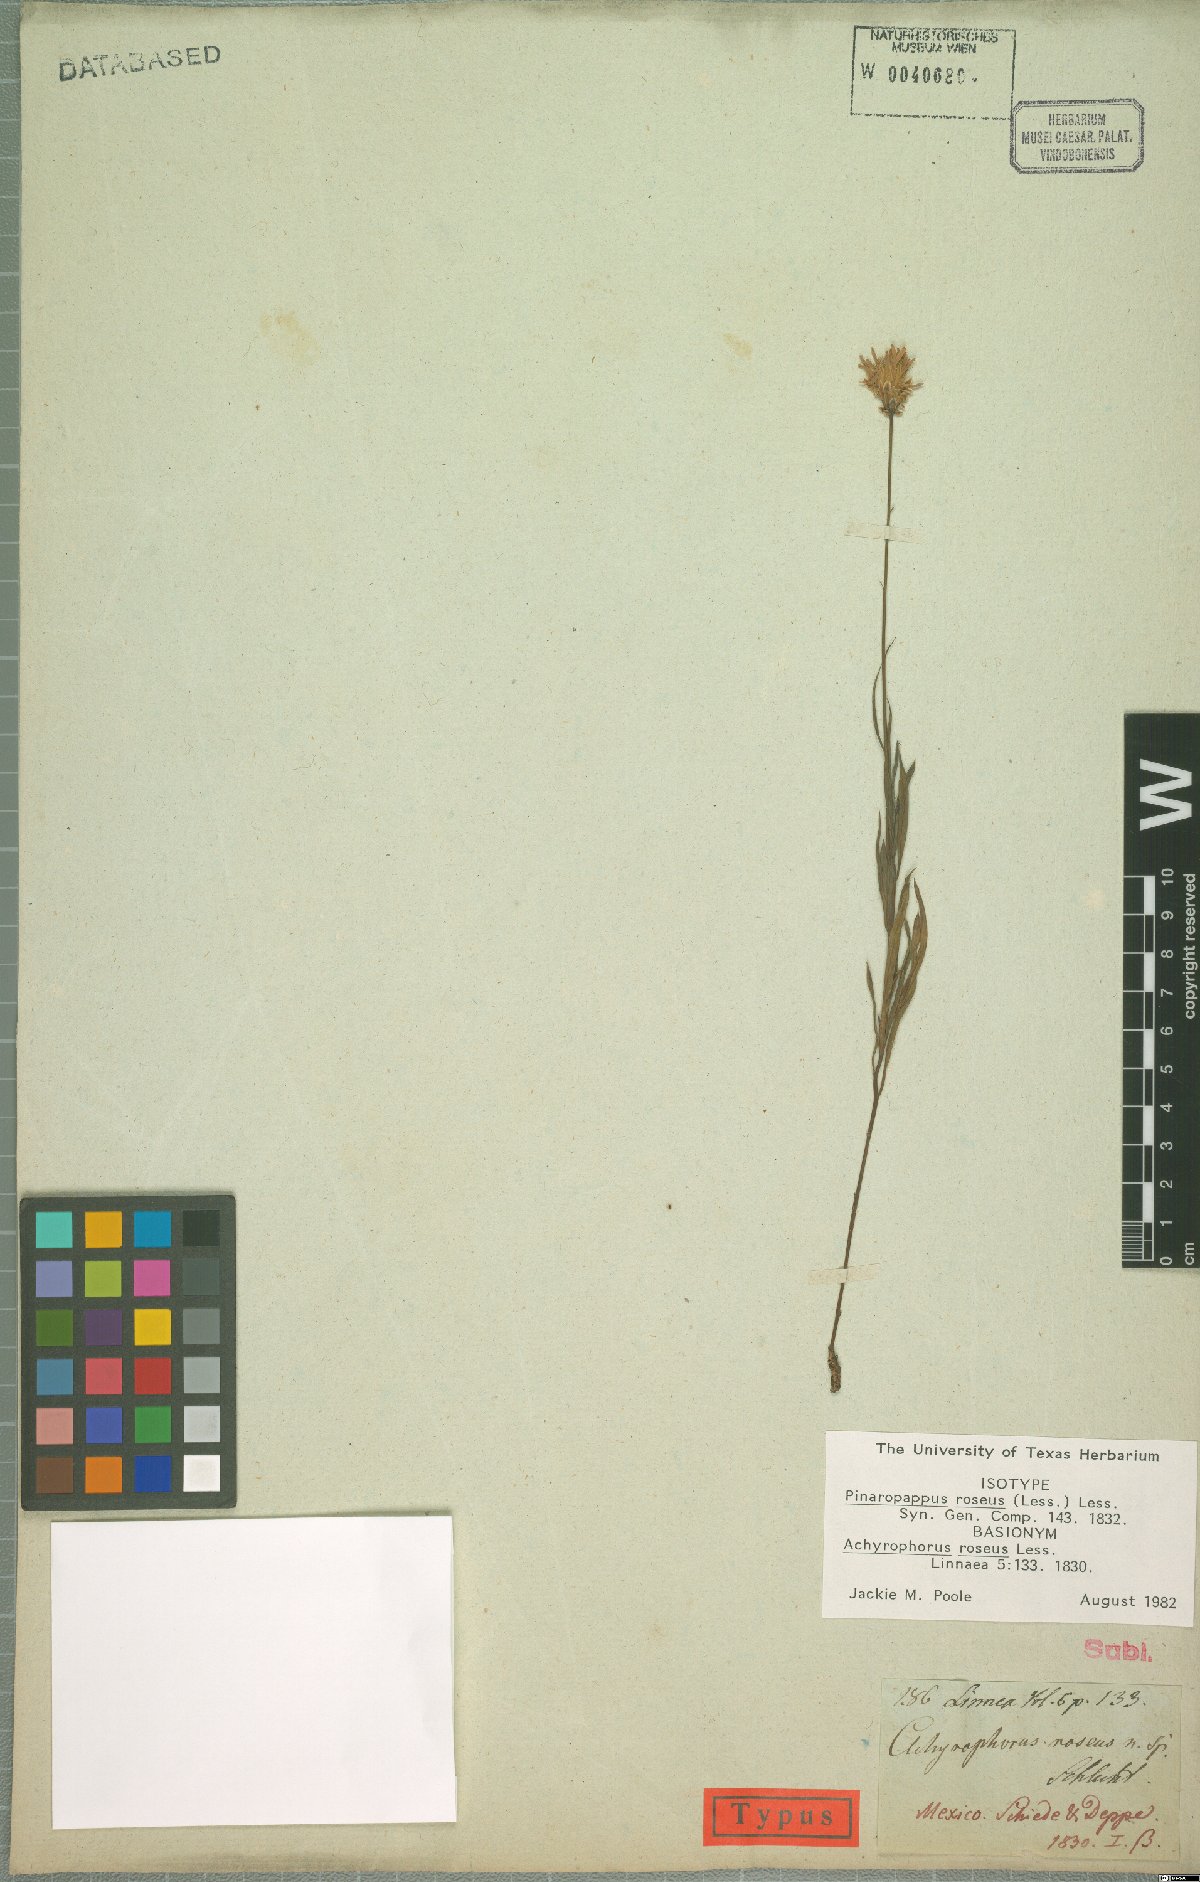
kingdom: Plantae
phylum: Tracheophyta
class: Magnoliopsida
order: Asterales
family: Asteraceae
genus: Pinaropappus
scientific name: Pinaropappus roseus
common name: Rock-lettuce
